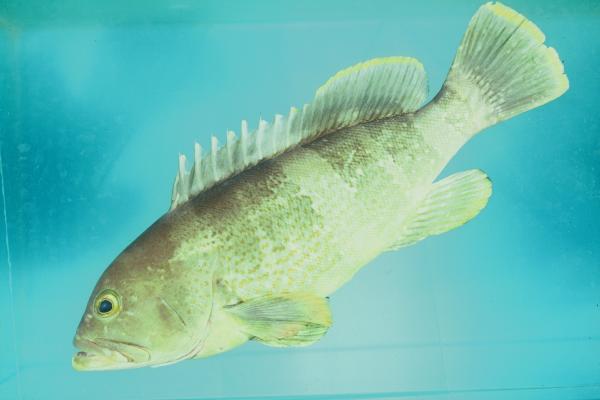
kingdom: Animalia
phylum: Chordata
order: Perciformes
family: Serranidae
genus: Epinephelus
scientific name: Epinephelus awoara
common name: Yellow grouper
